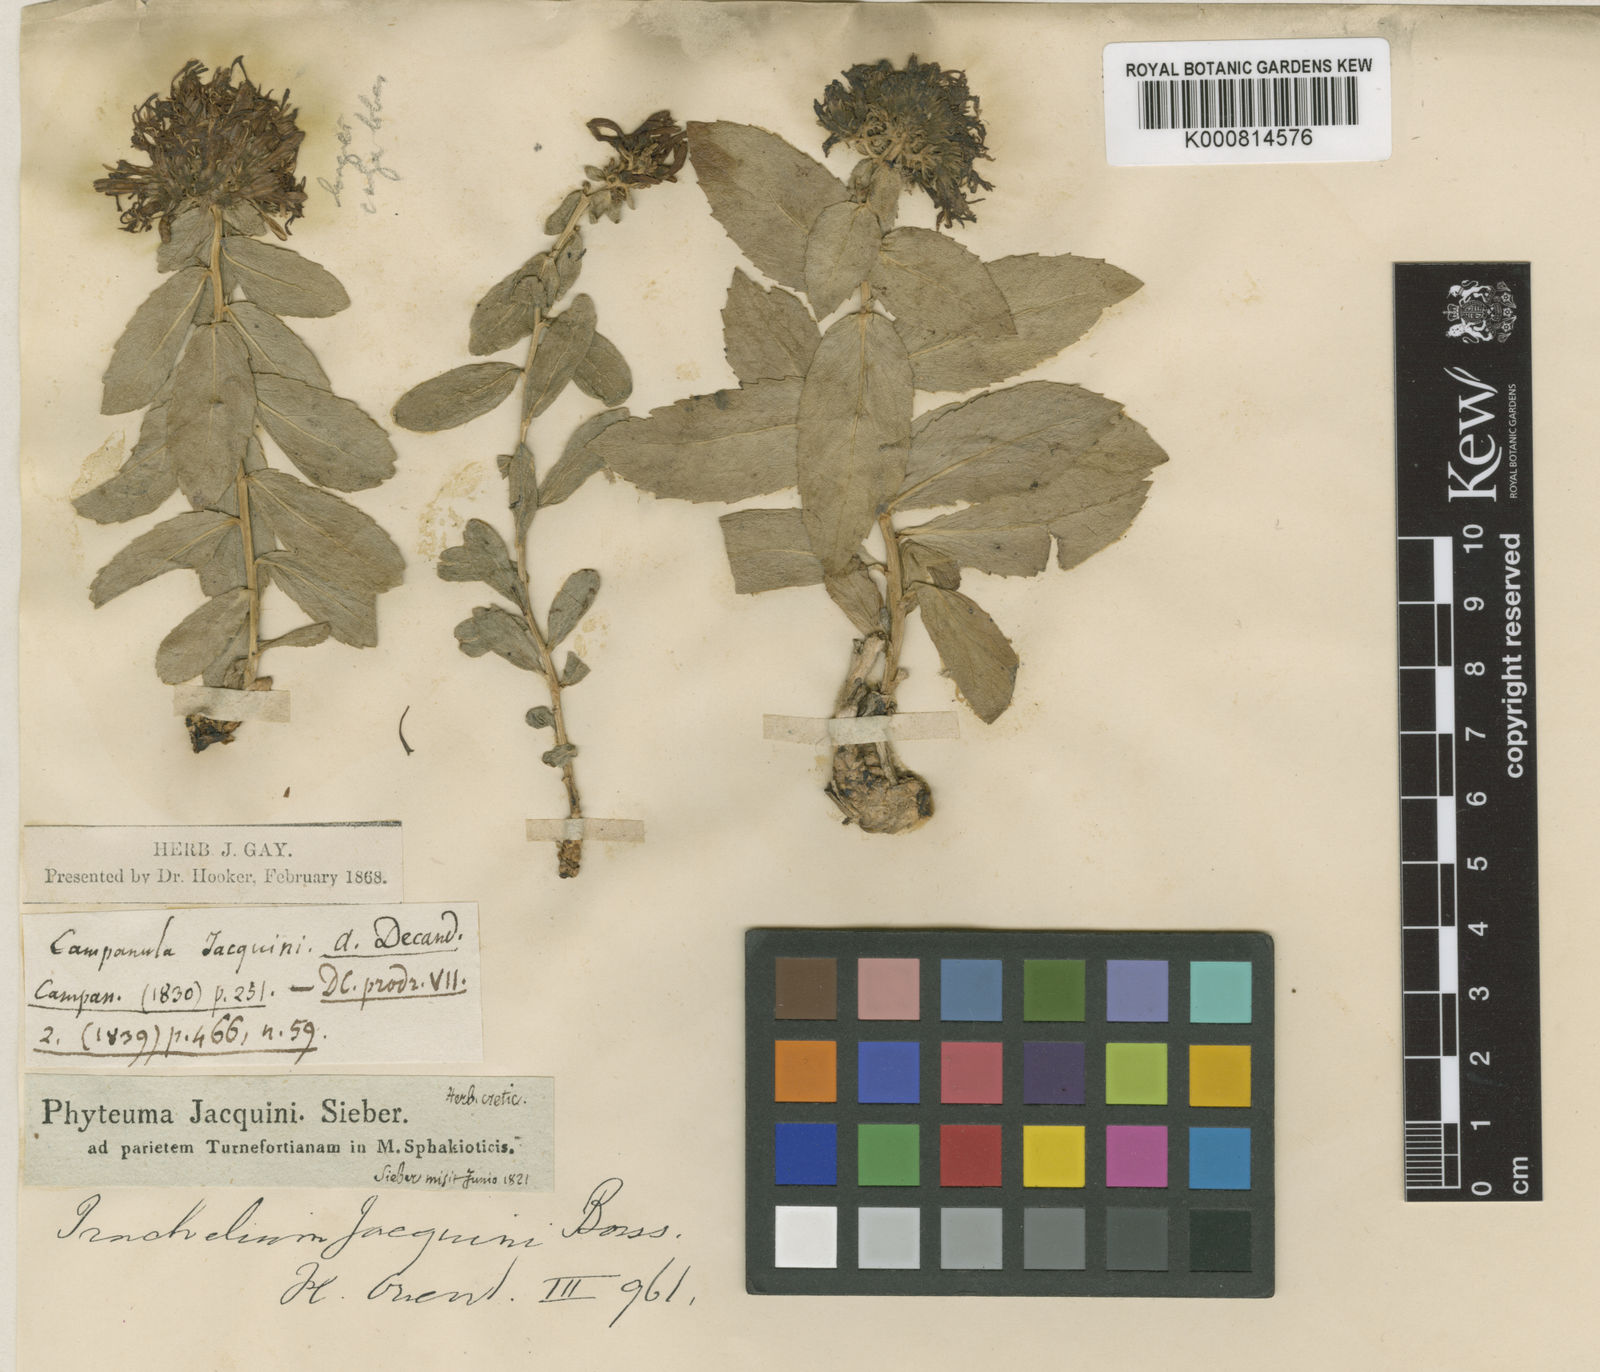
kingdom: Plantae
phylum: Tracheophyta
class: Magnoliopsida
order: Asterales
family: Campanulaceae
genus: Diosphaera
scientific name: Diosphaera
